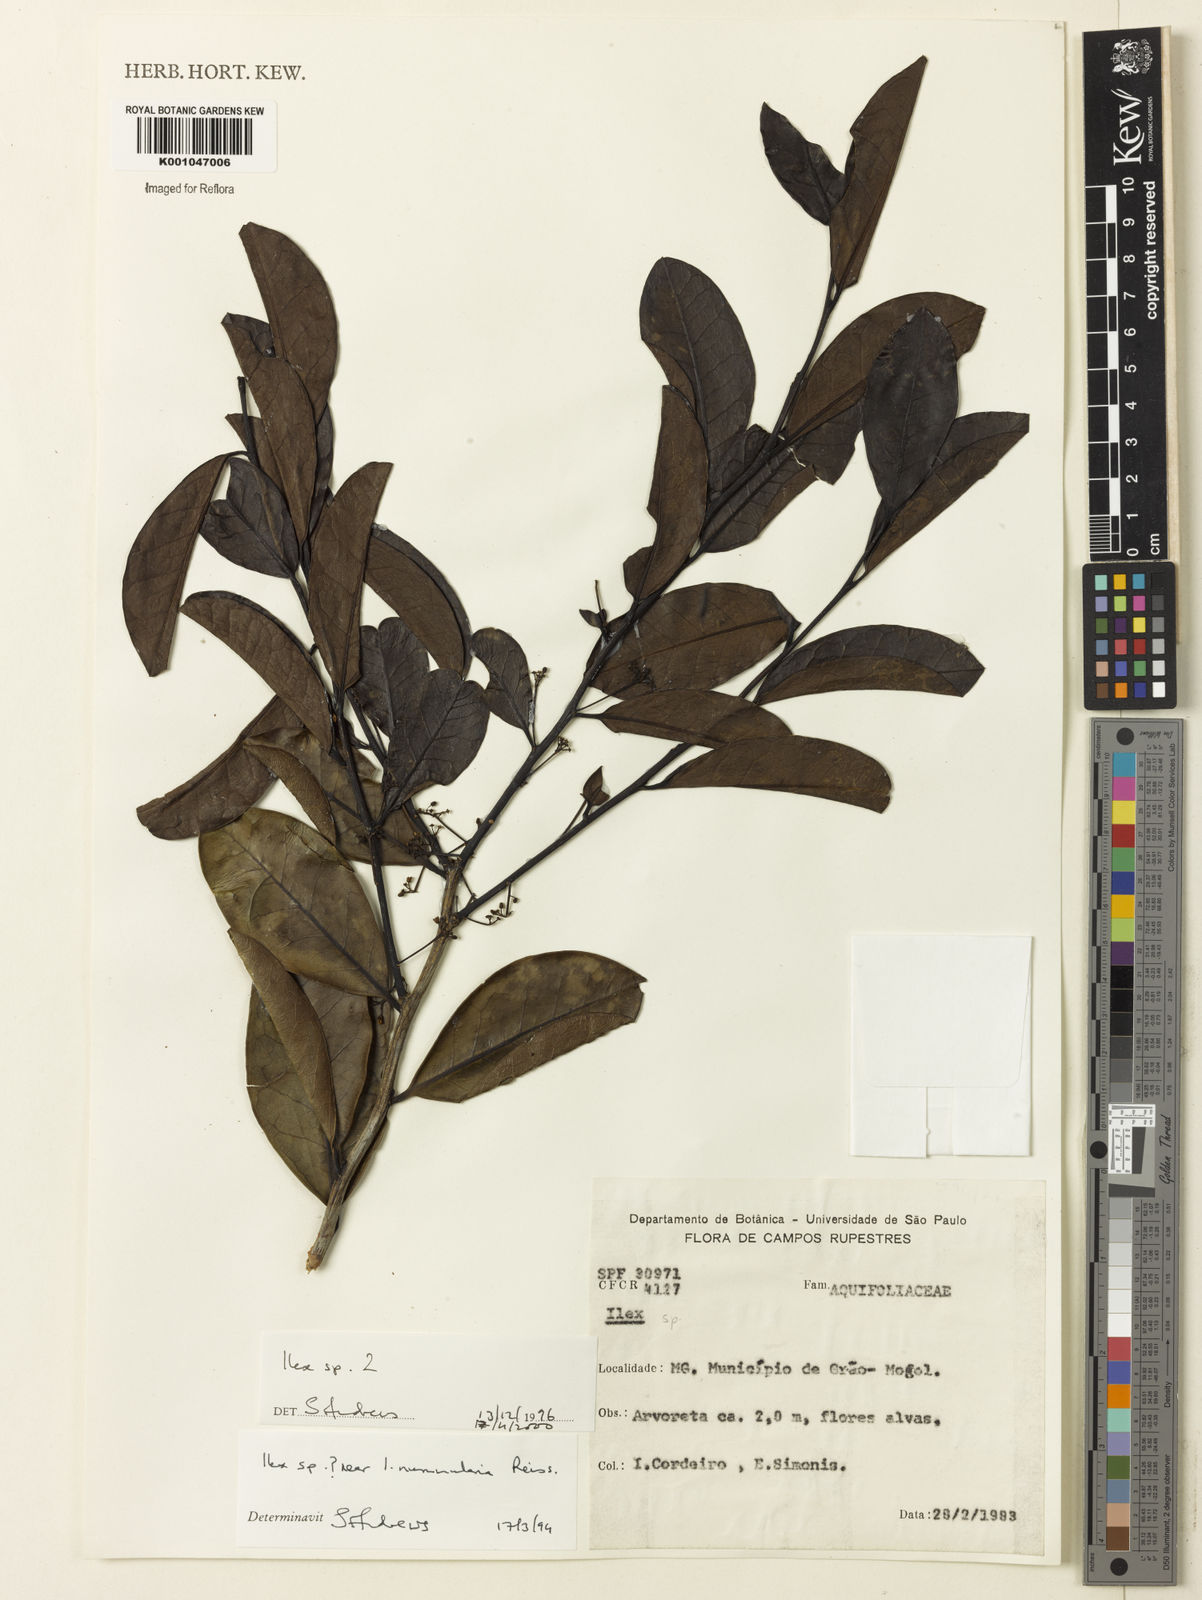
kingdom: Plantae
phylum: Tracheophyta
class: Magnoliopsida
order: Aquifoliales
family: Aquifoliaceae
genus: Ilex
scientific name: Ilex
